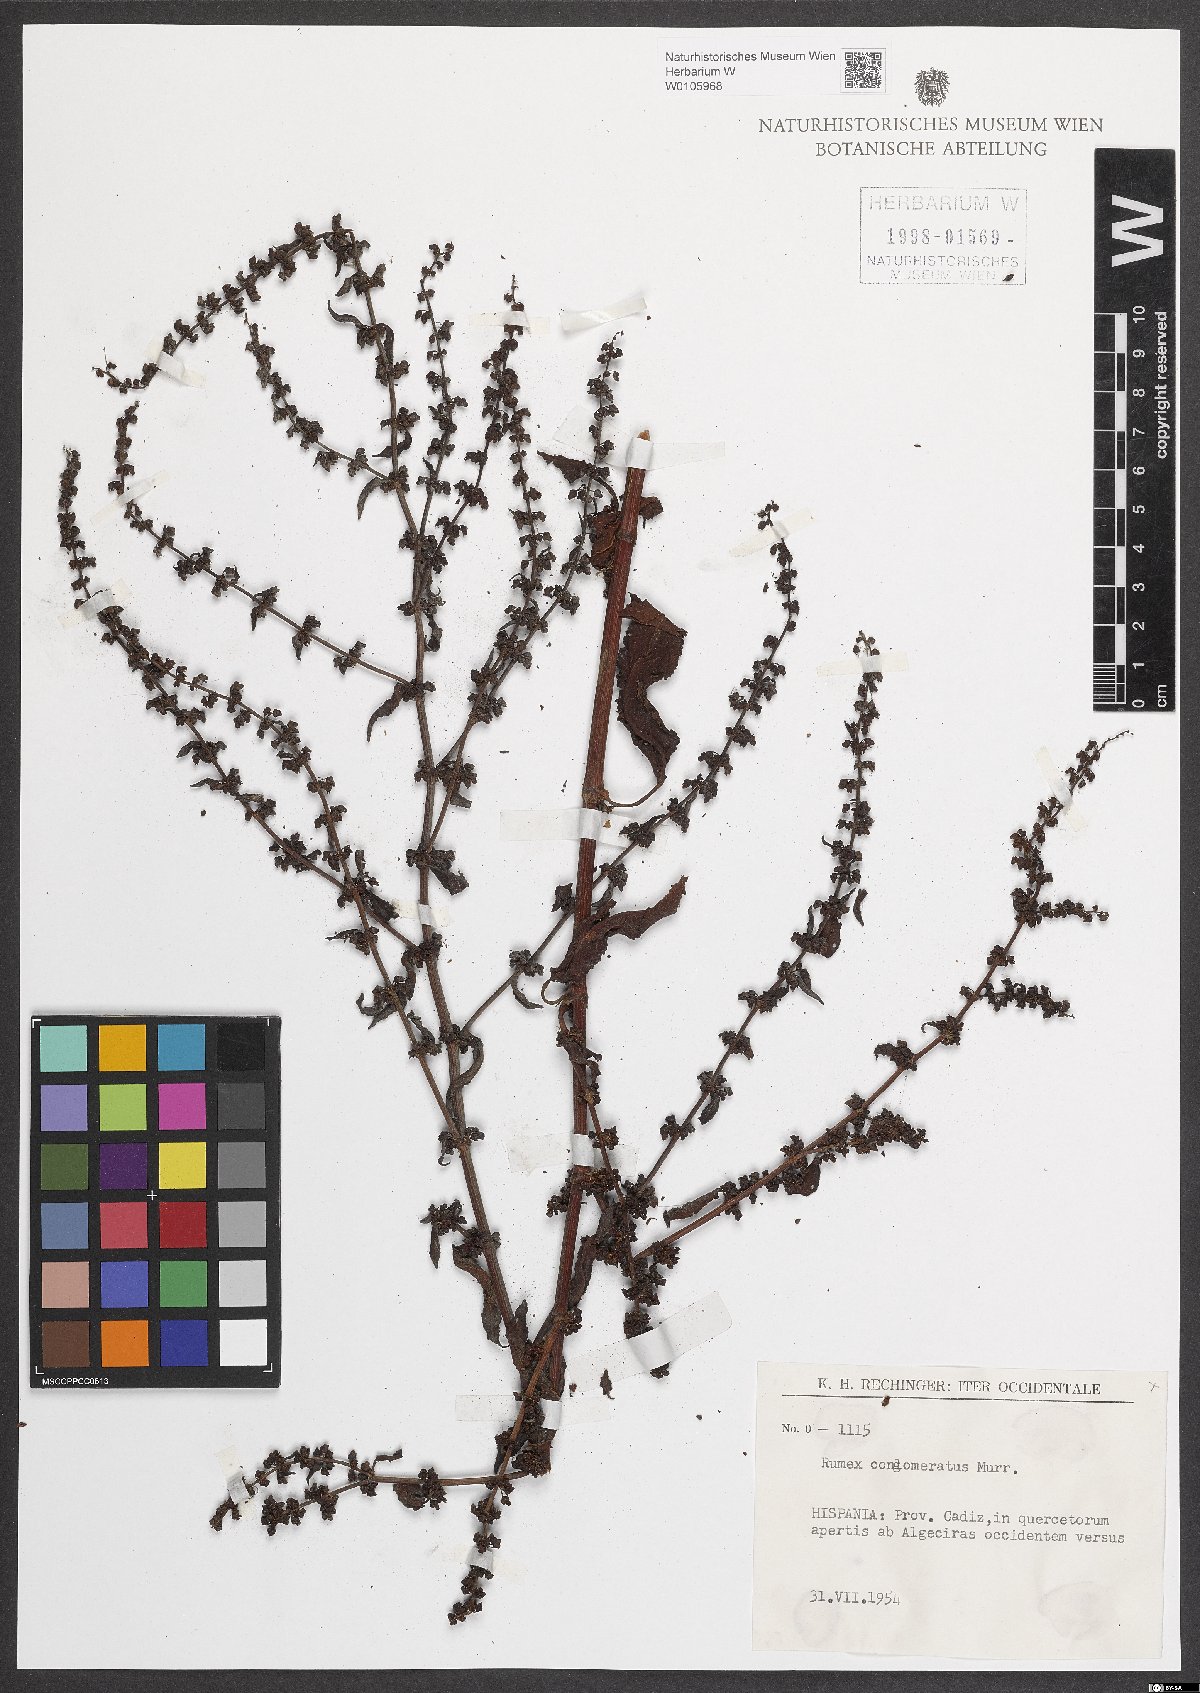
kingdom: Plantae
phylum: Tracheophyta
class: Magnoliopsida
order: Caryophyllales
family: Polygonaceae
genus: Rumex
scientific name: Rumex conglomeratus
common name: Clustered dock
